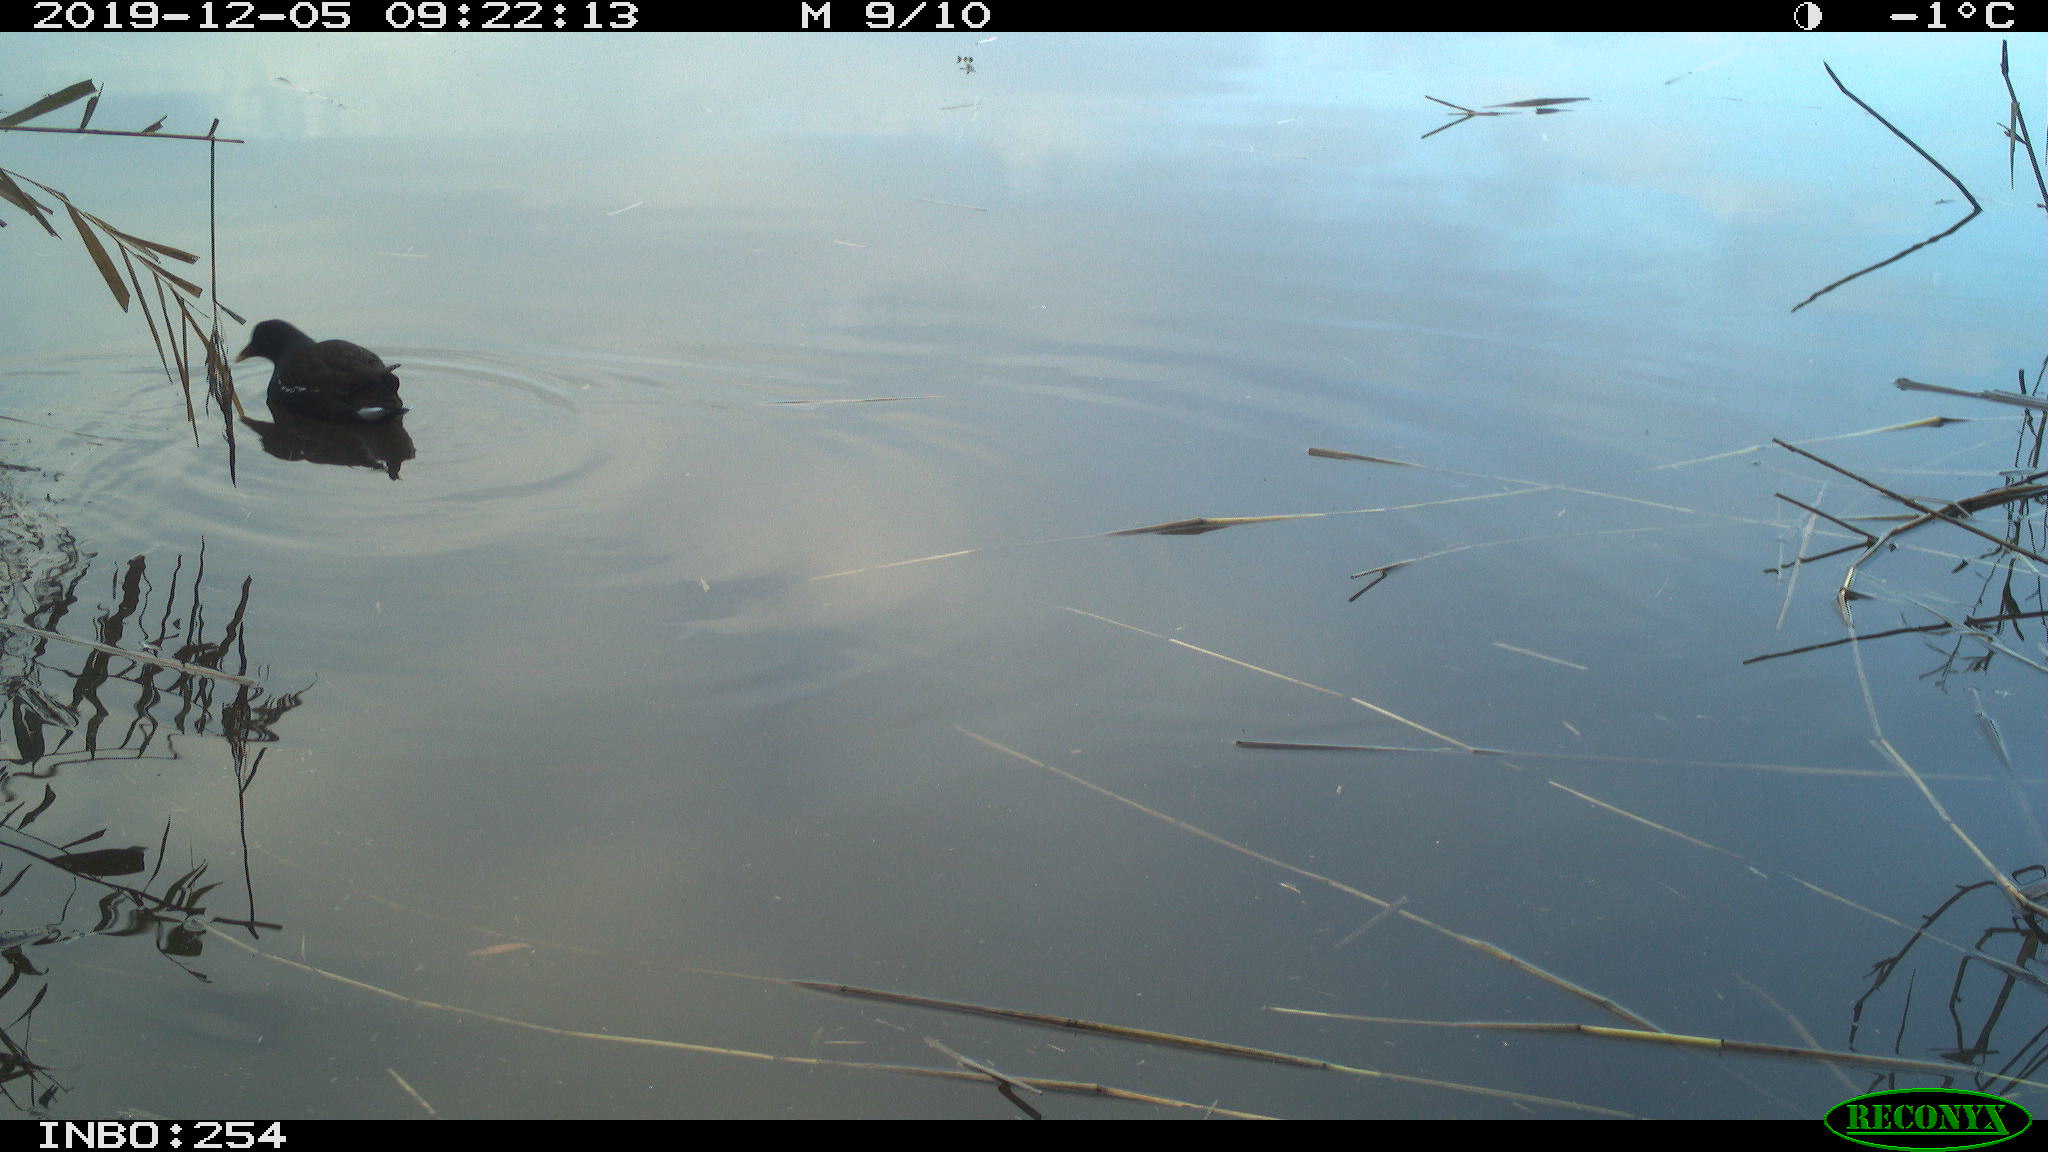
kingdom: Animalia
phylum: Chordata
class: Aves
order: Gruiformes
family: Rallidae
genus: Gallinula
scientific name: Gallinula chloropus
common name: Common moorhen
